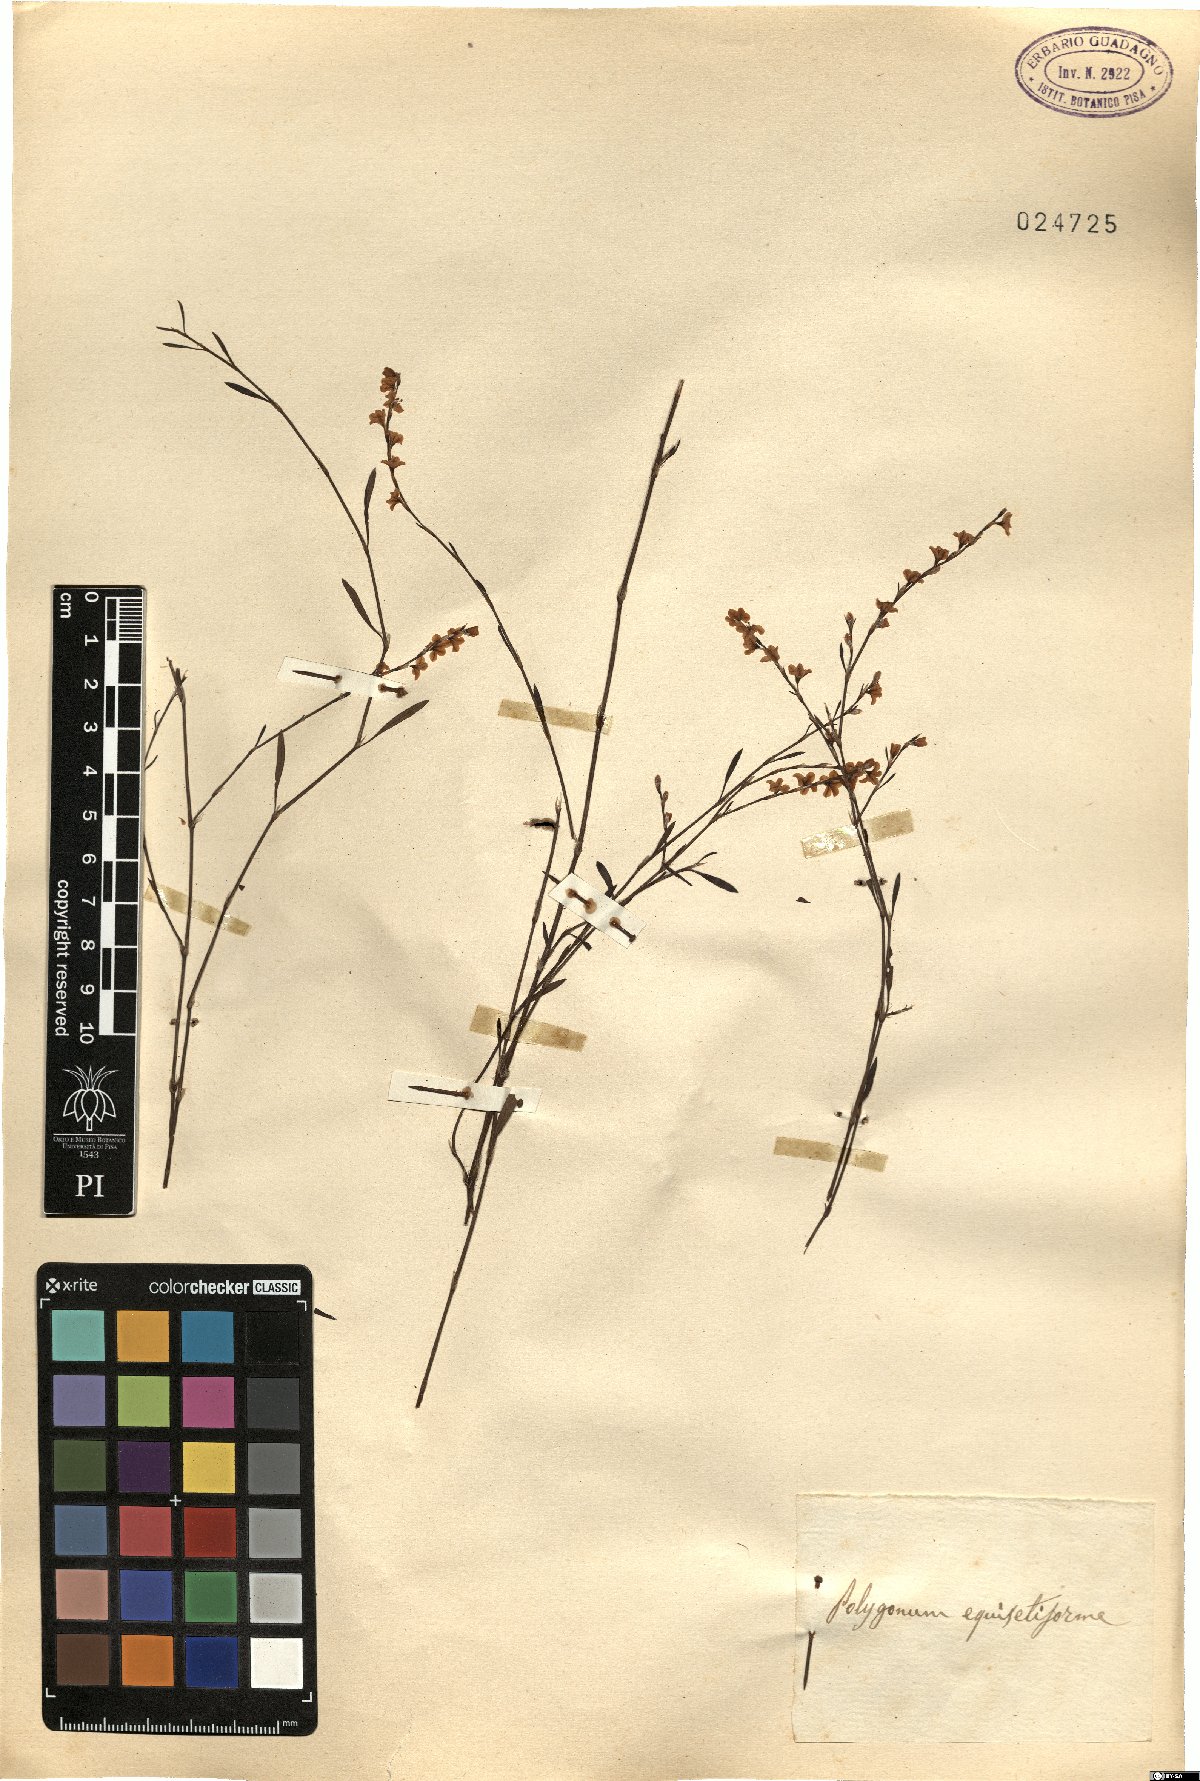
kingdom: Plantae
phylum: Tracheophyta
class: Magnoliopsida
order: Caryophyllales
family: Polygonaceae
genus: Polygonum
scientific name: Polygonum equisetiforme
